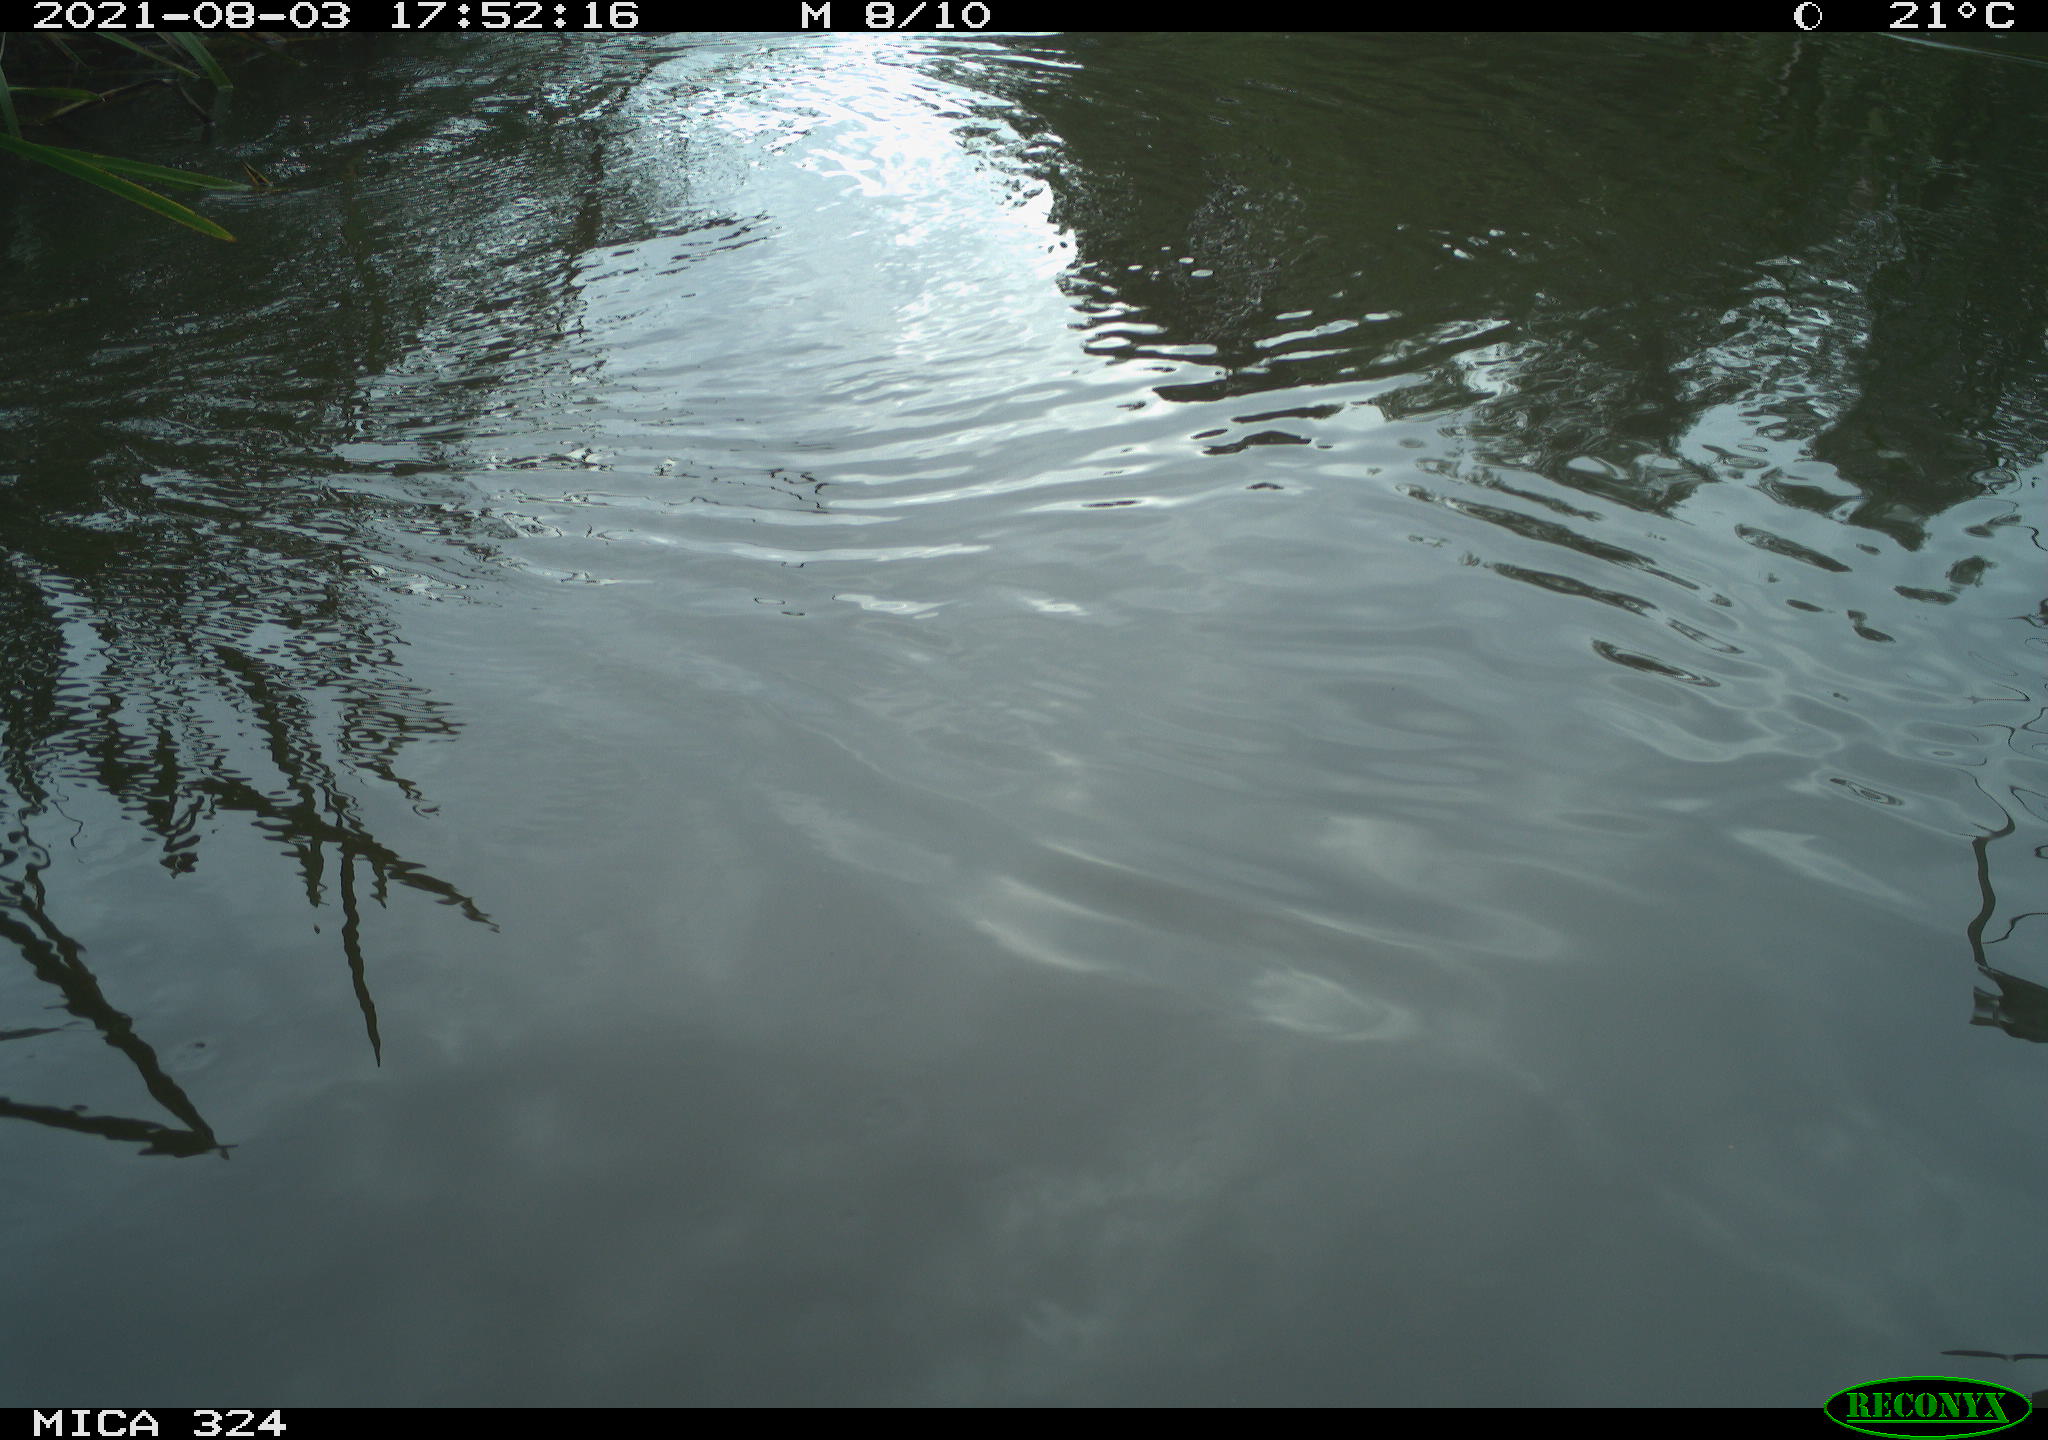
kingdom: Animalia
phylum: Chordata
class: Mammalia
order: Rodentia
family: Cricetidae
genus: Ondatra
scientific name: Ondatra zibethicus
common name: Muskrat
